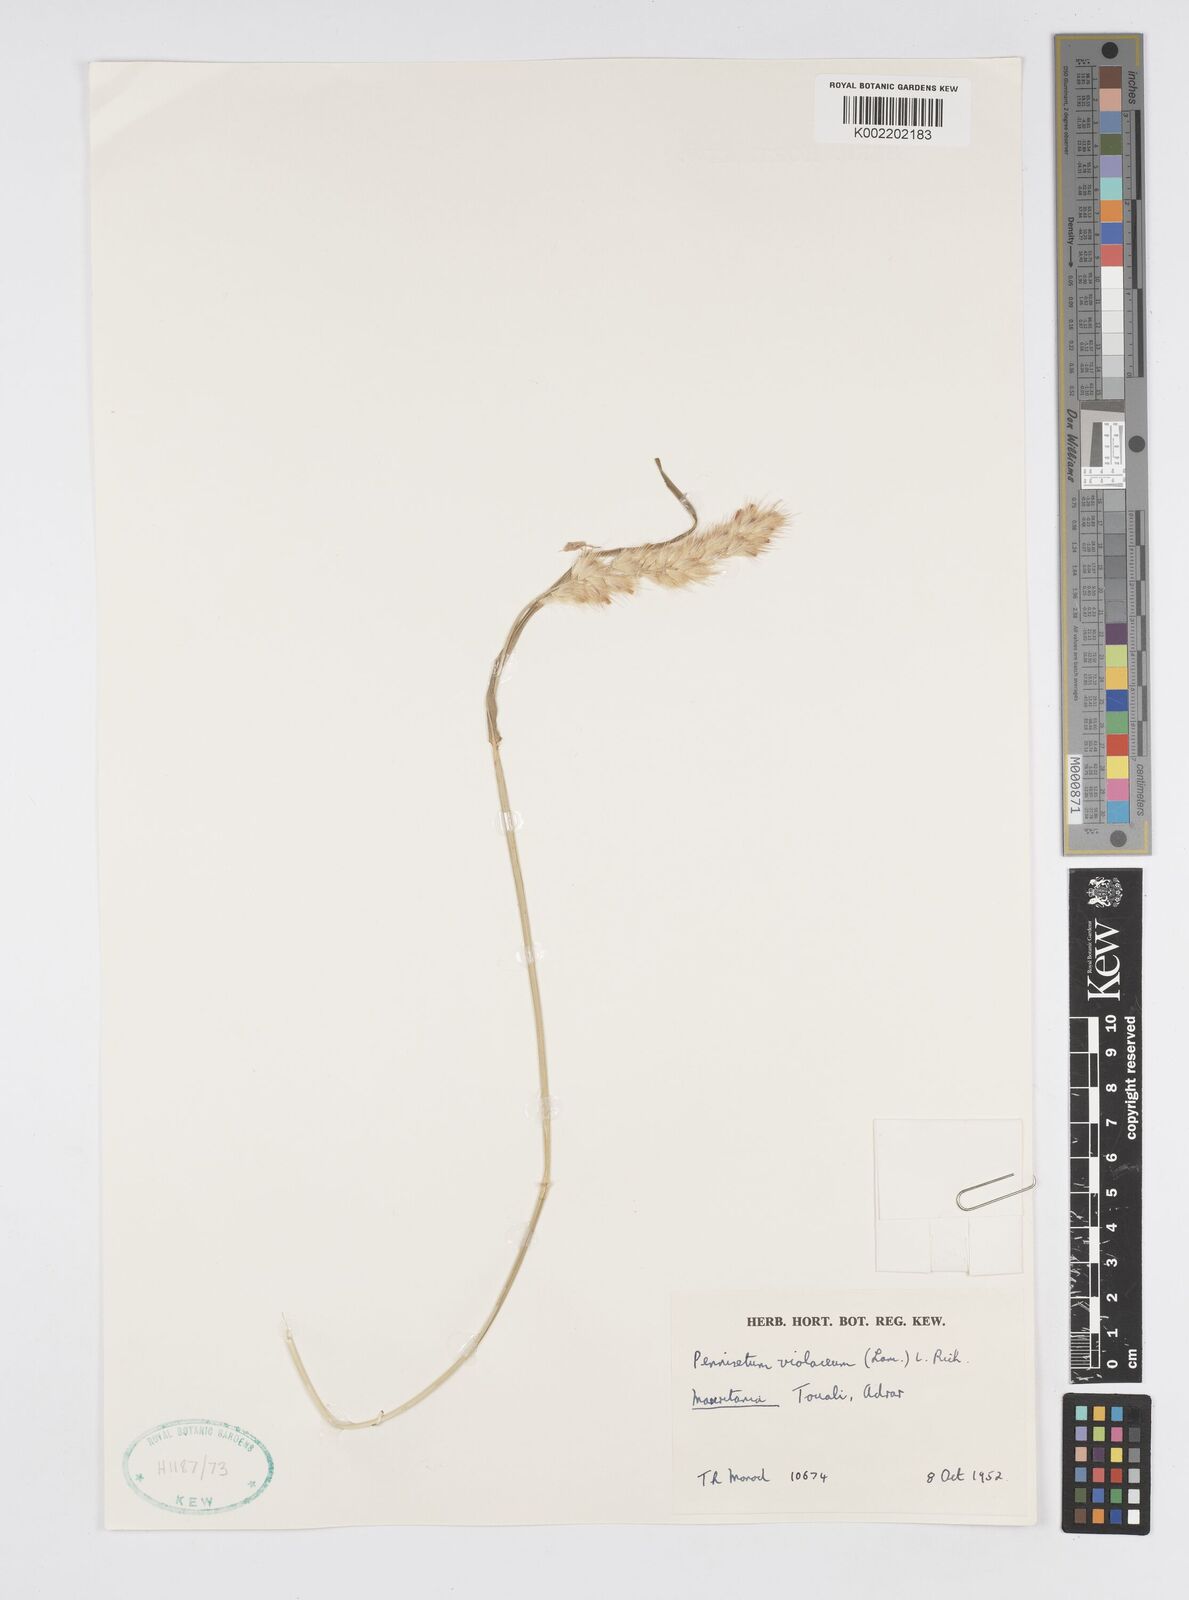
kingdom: Plantae
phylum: Tracheophyta
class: Liliopsida
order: Poales
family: Poaceae
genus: Cenchrus
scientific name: Cenchrus violaceus
